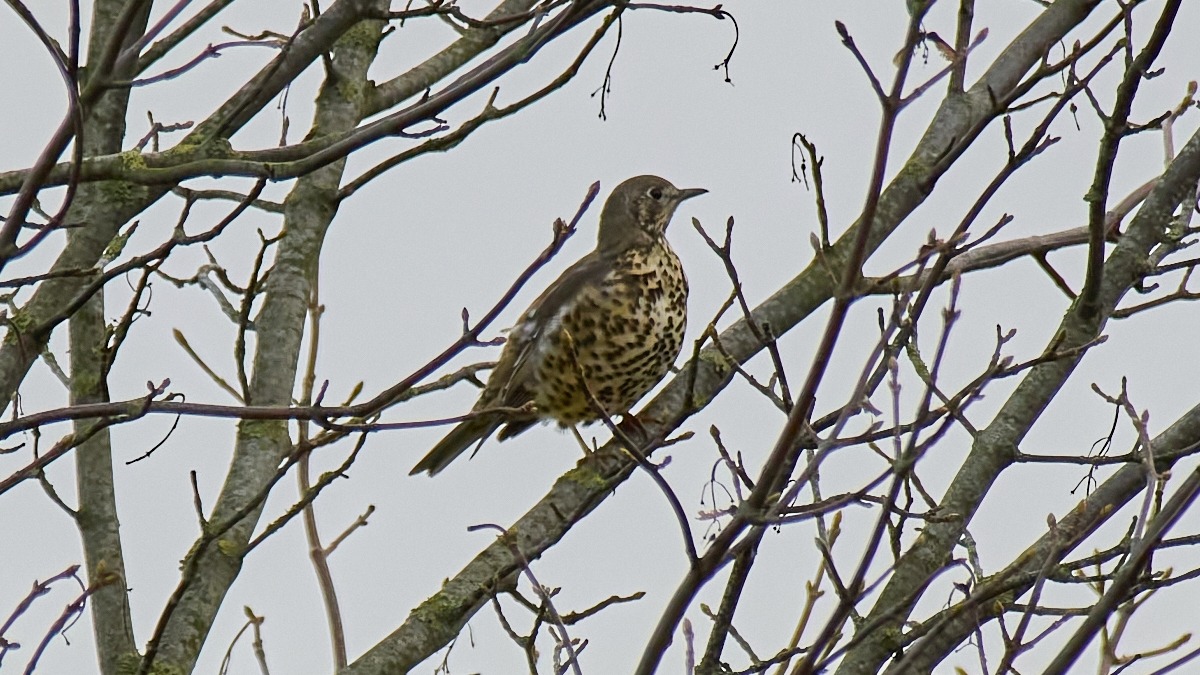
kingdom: Animalia
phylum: Chordata
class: Aves
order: Passeriformes
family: Turdidae
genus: Turdus
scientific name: Turdus viscivorus
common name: Misteldrossel
